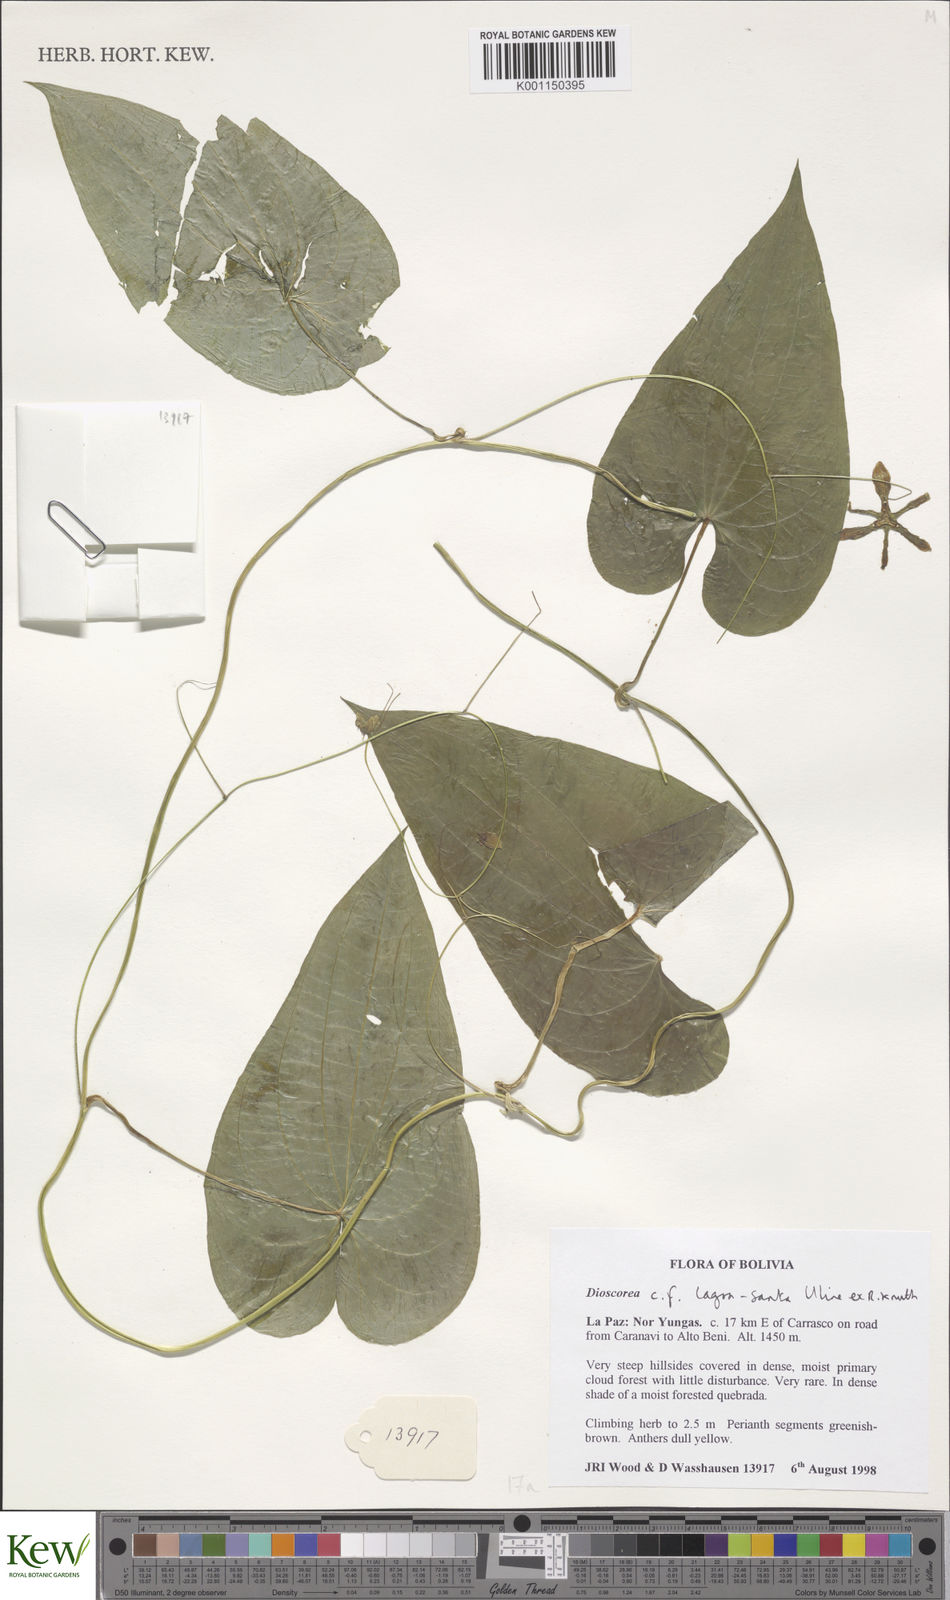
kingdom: Plantae
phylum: Tracheophyta
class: Liliopsida
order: Dioscoreales
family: Dioscoreaceae
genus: Dioscorea
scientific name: Dioscorea spectabilis
